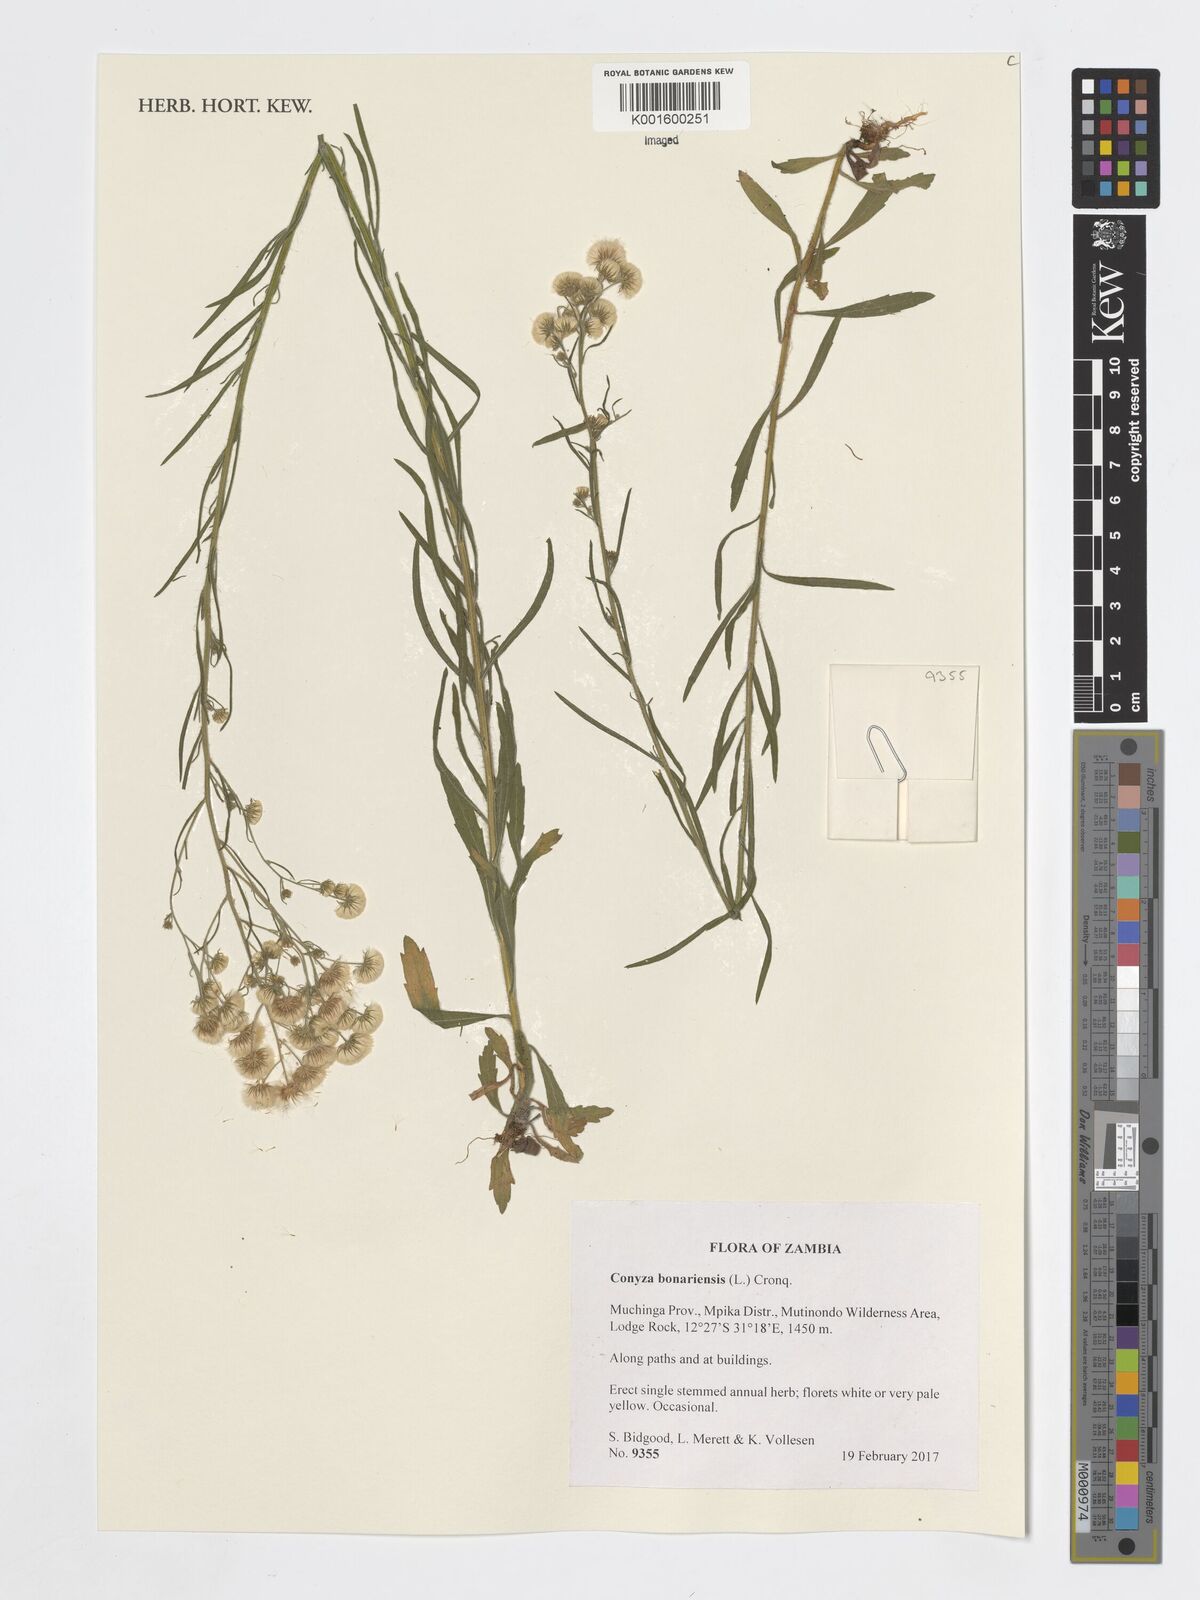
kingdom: Plantae
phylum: Tracheophyta
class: Magnoliopsida
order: Asterales
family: Asteraceae
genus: Erigeron
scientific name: Erigeron bonariensis
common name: Argentine fleabane
